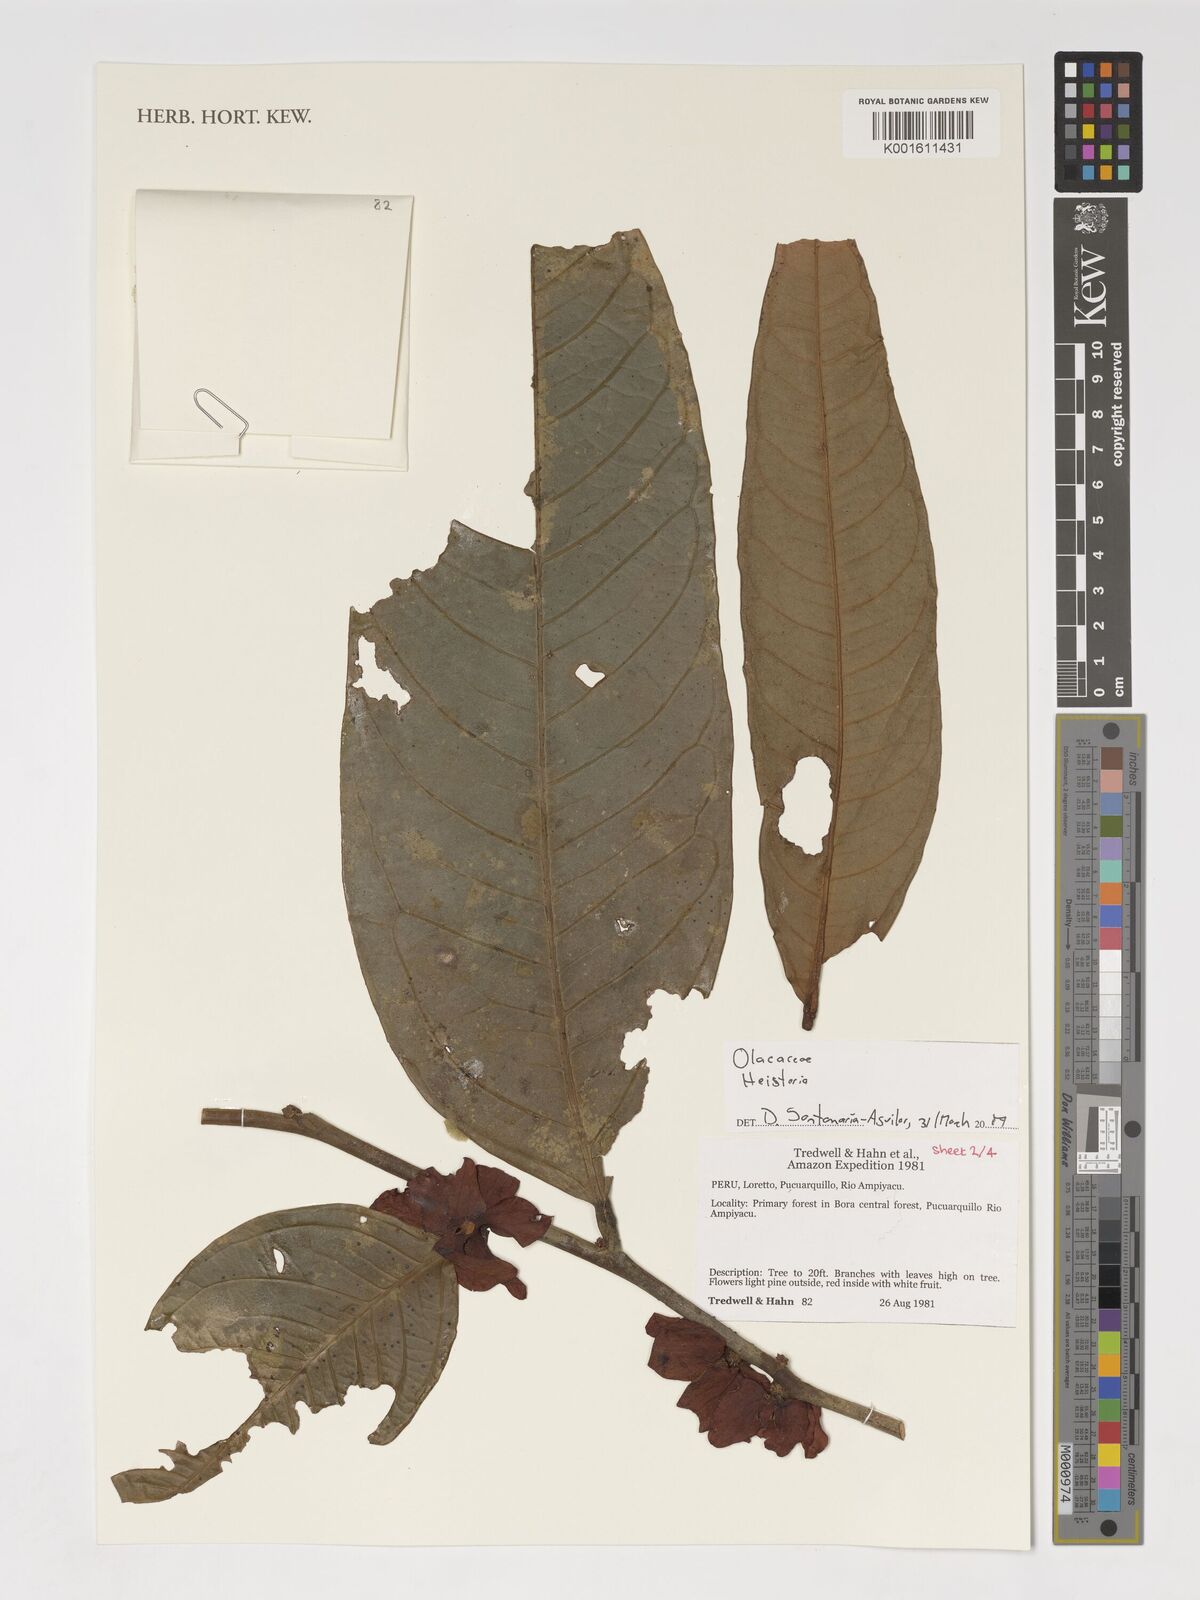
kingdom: Plantae
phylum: Tracheophyta
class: Magnoliopsida
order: Santalales
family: Erythropalaceae
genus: Heisteria
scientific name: Heisteria
